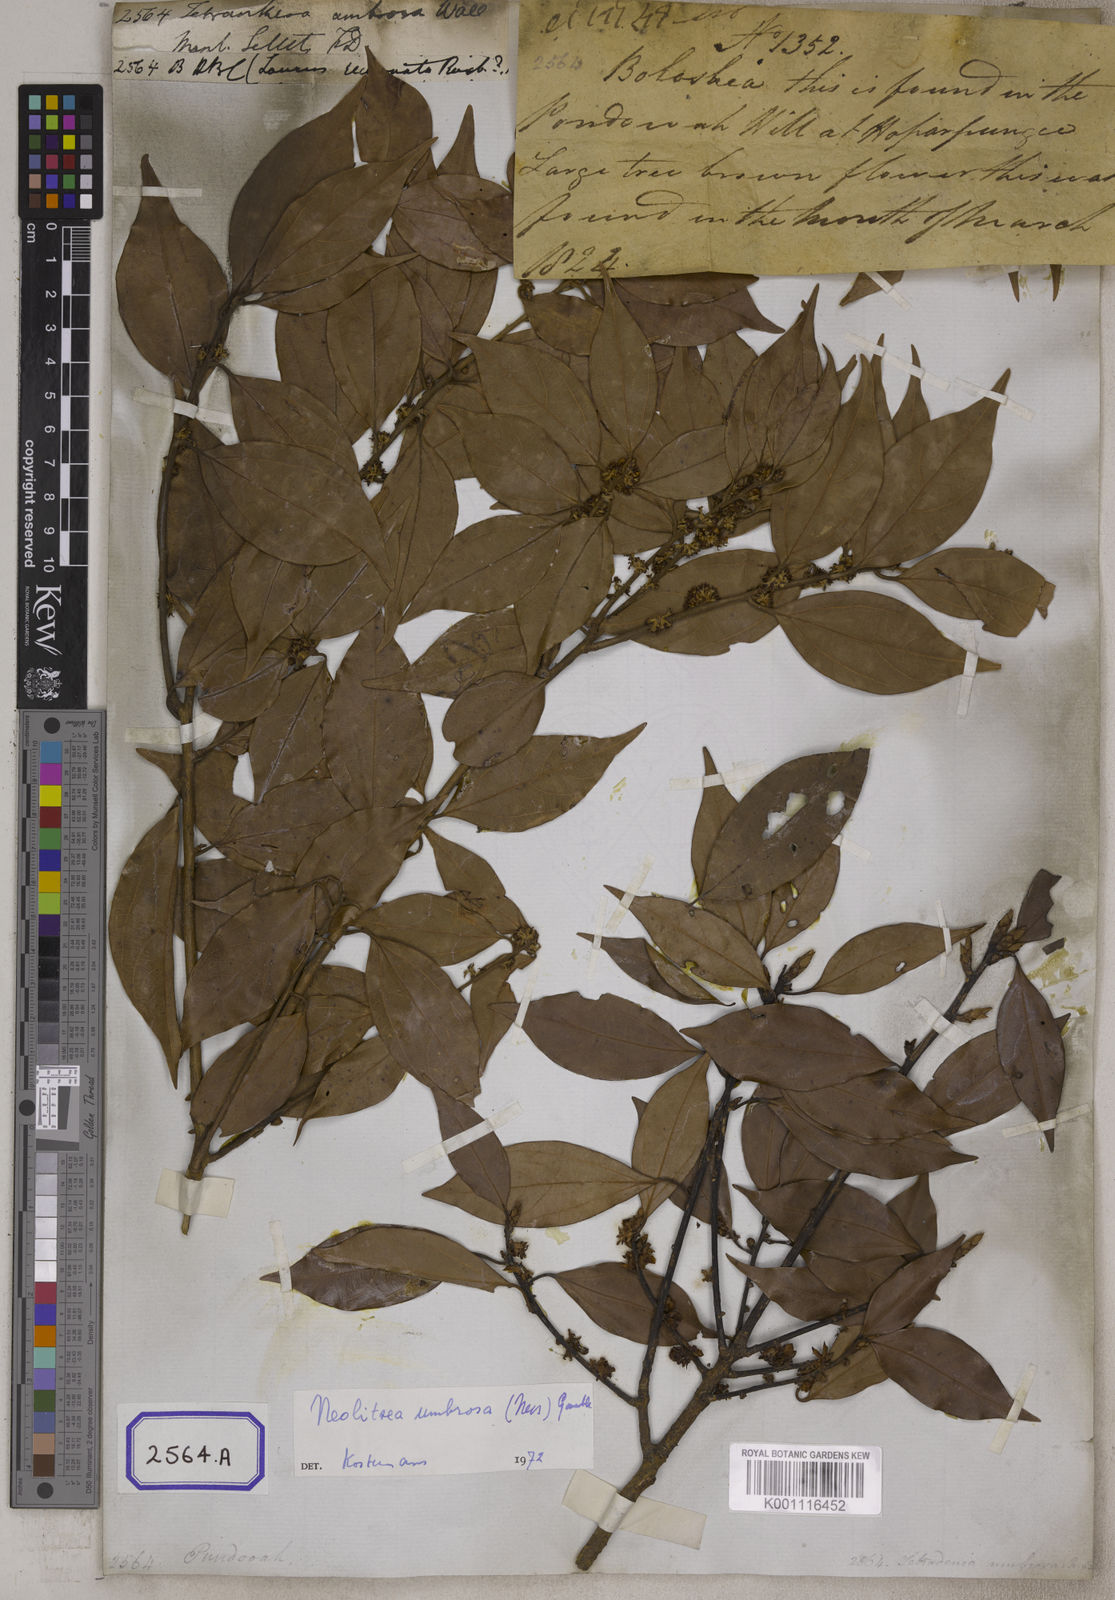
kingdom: Plantae
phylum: Tracheophyta
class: Magnoliopsida
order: Laurales
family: Lauraceae
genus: Litsea
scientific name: Litsea
